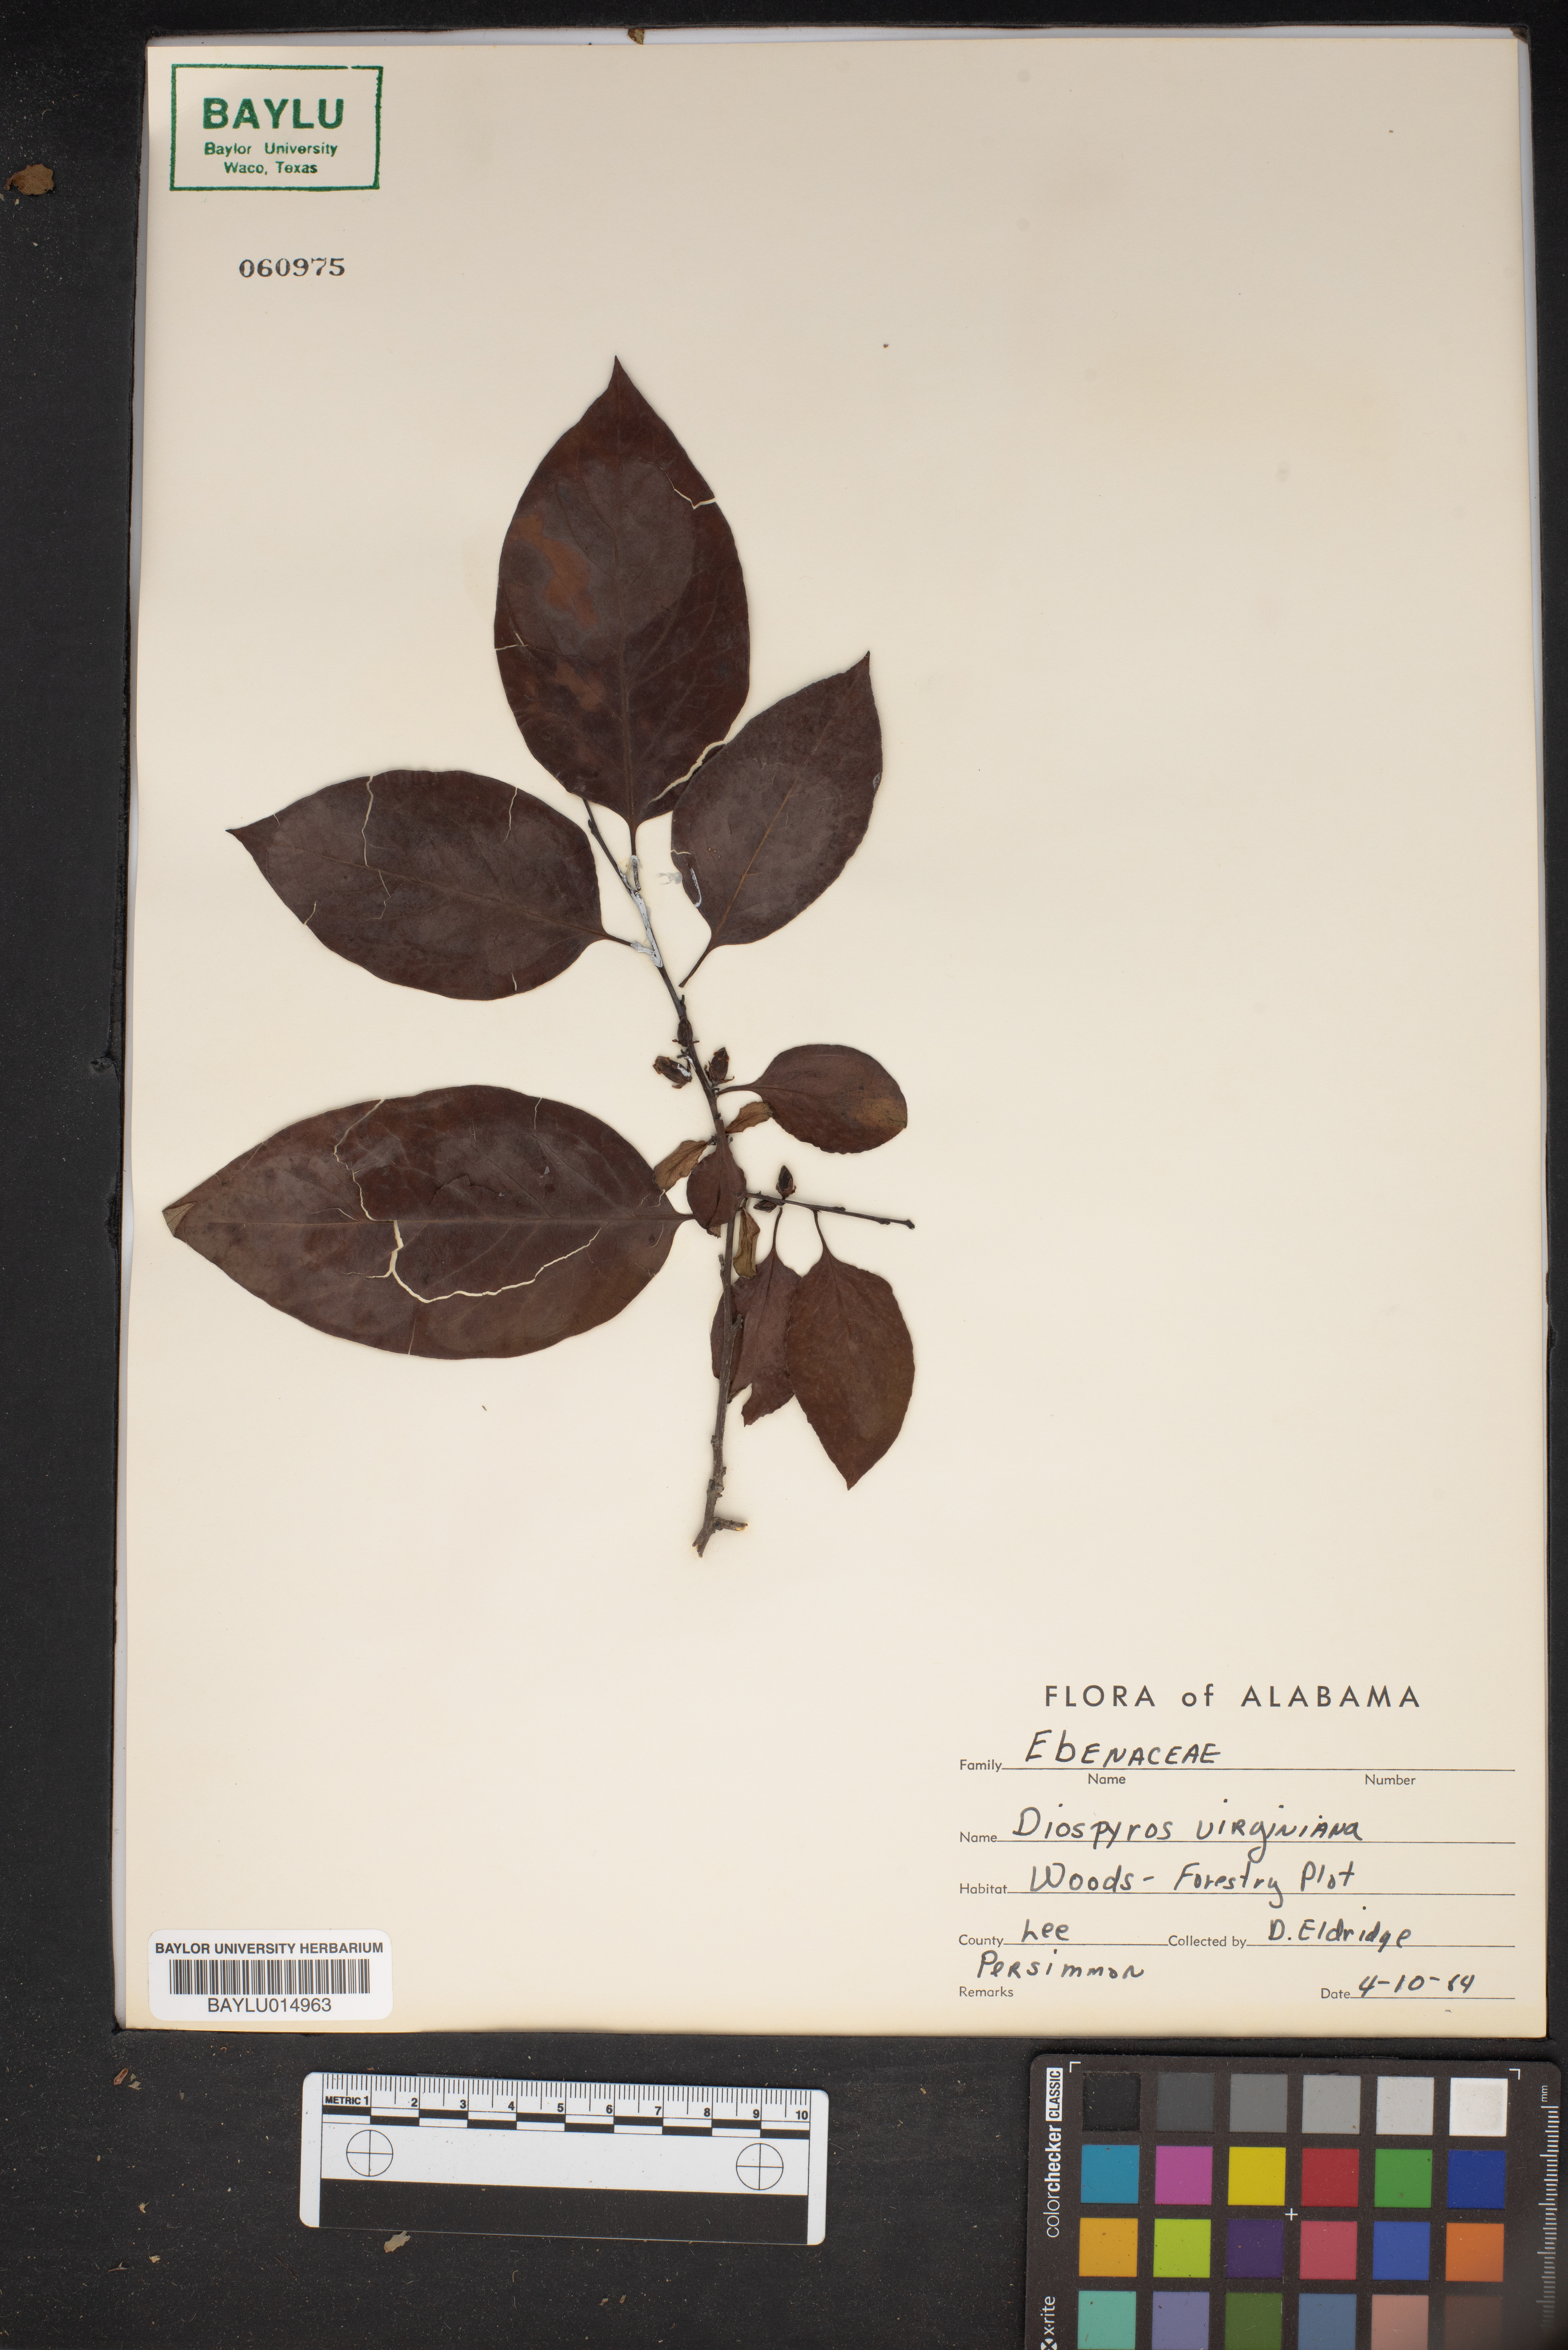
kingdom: Plantae
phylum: Tracheophyta
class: Magnoliopsida
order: Ericales
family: Ebenaceae
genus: Diospyros
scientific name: Diospyros virginiana
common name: Persimmon
